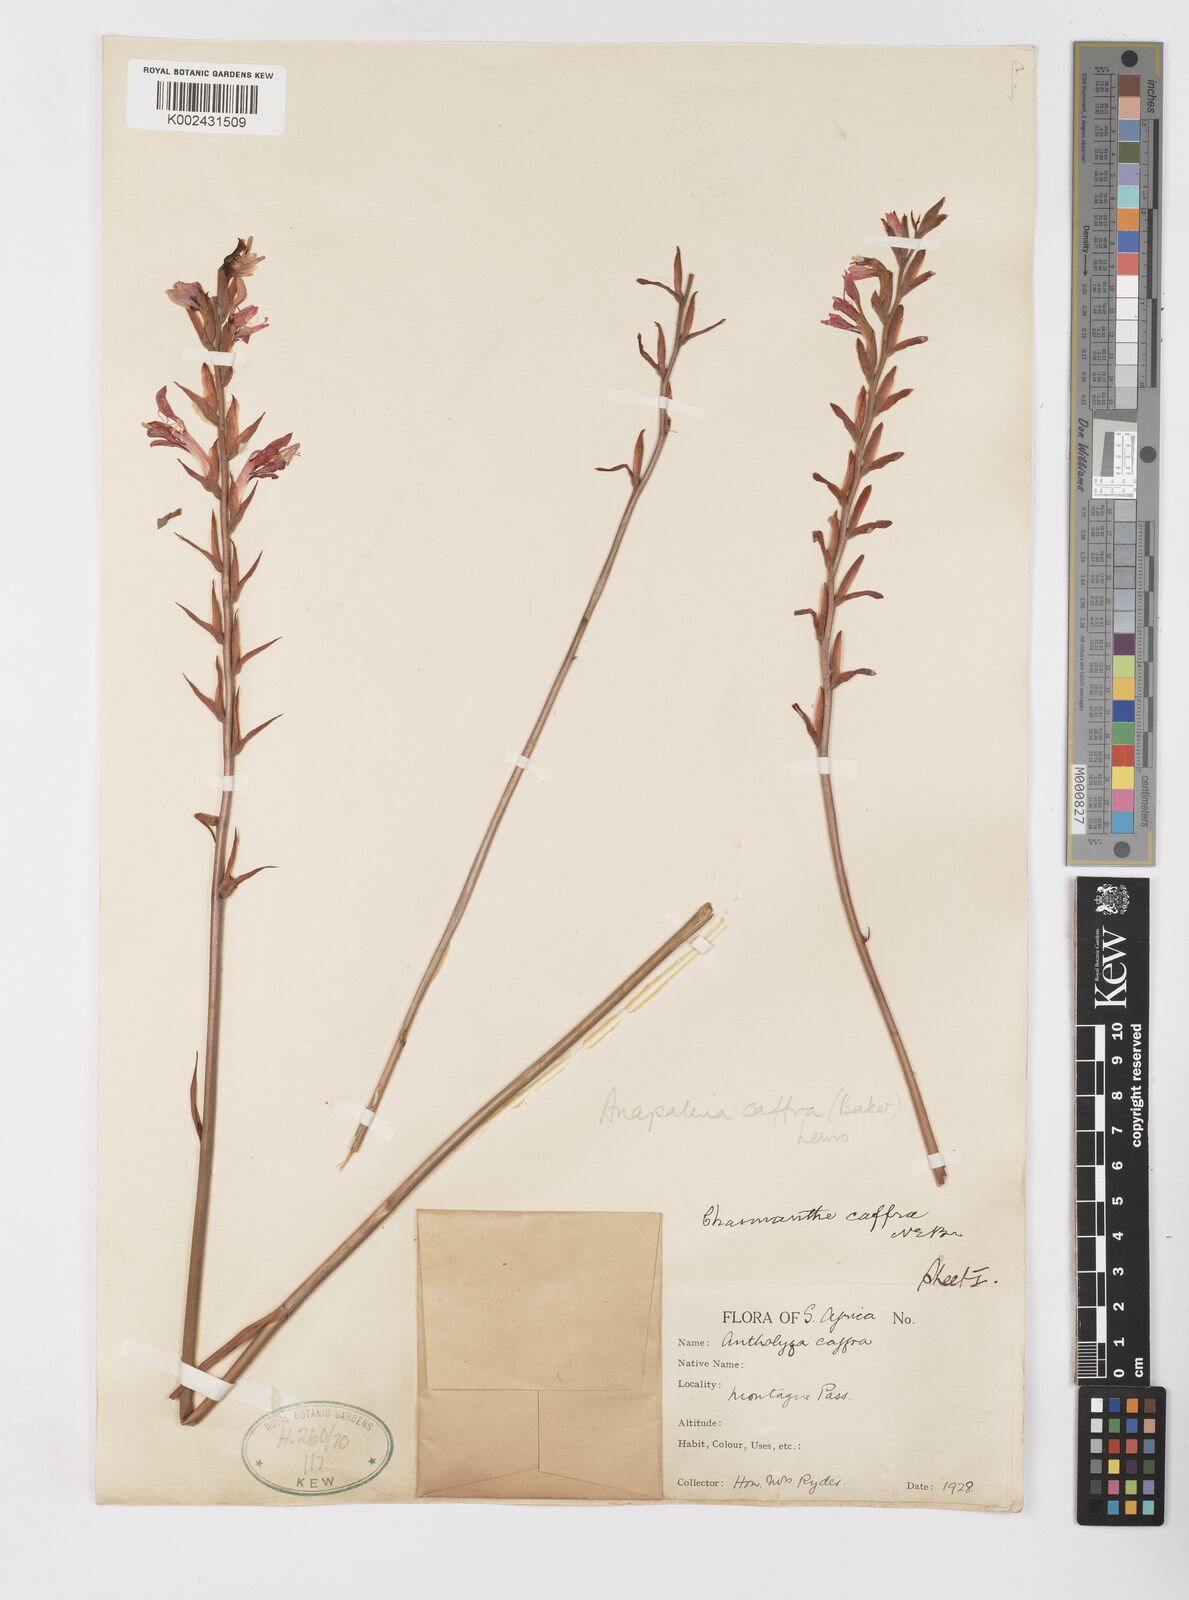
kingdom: Plantae
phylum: Tracheophyta
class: Liliopsida
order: Asparagales
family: Iridaceae
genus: Tritoniopsis
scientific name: Tritoniopsis caffra
